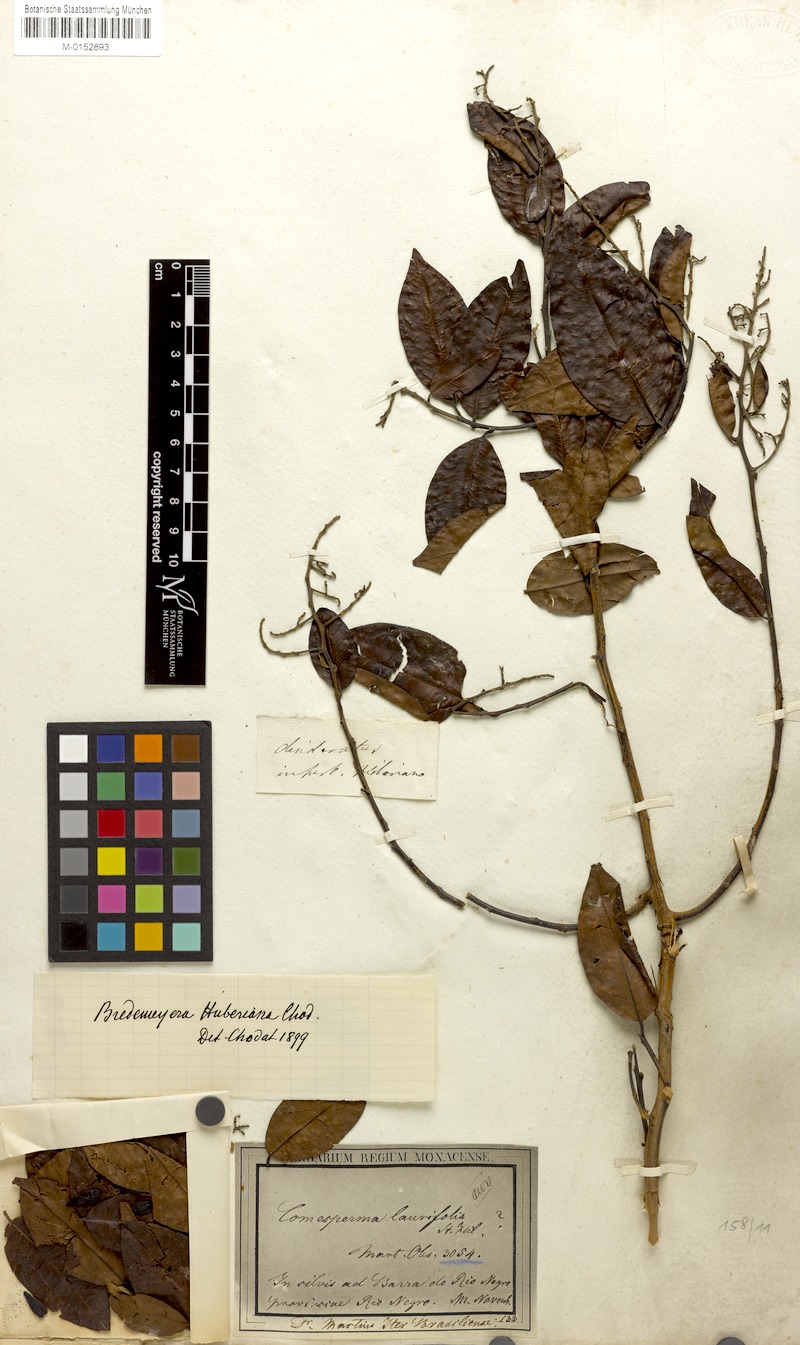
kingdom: Plantae
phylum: Tracheophyta
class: Magnoliopsida
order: Fabales
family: Polygalaceae
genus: Bredemeyera
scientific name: Bredemeyera myrtifolia
